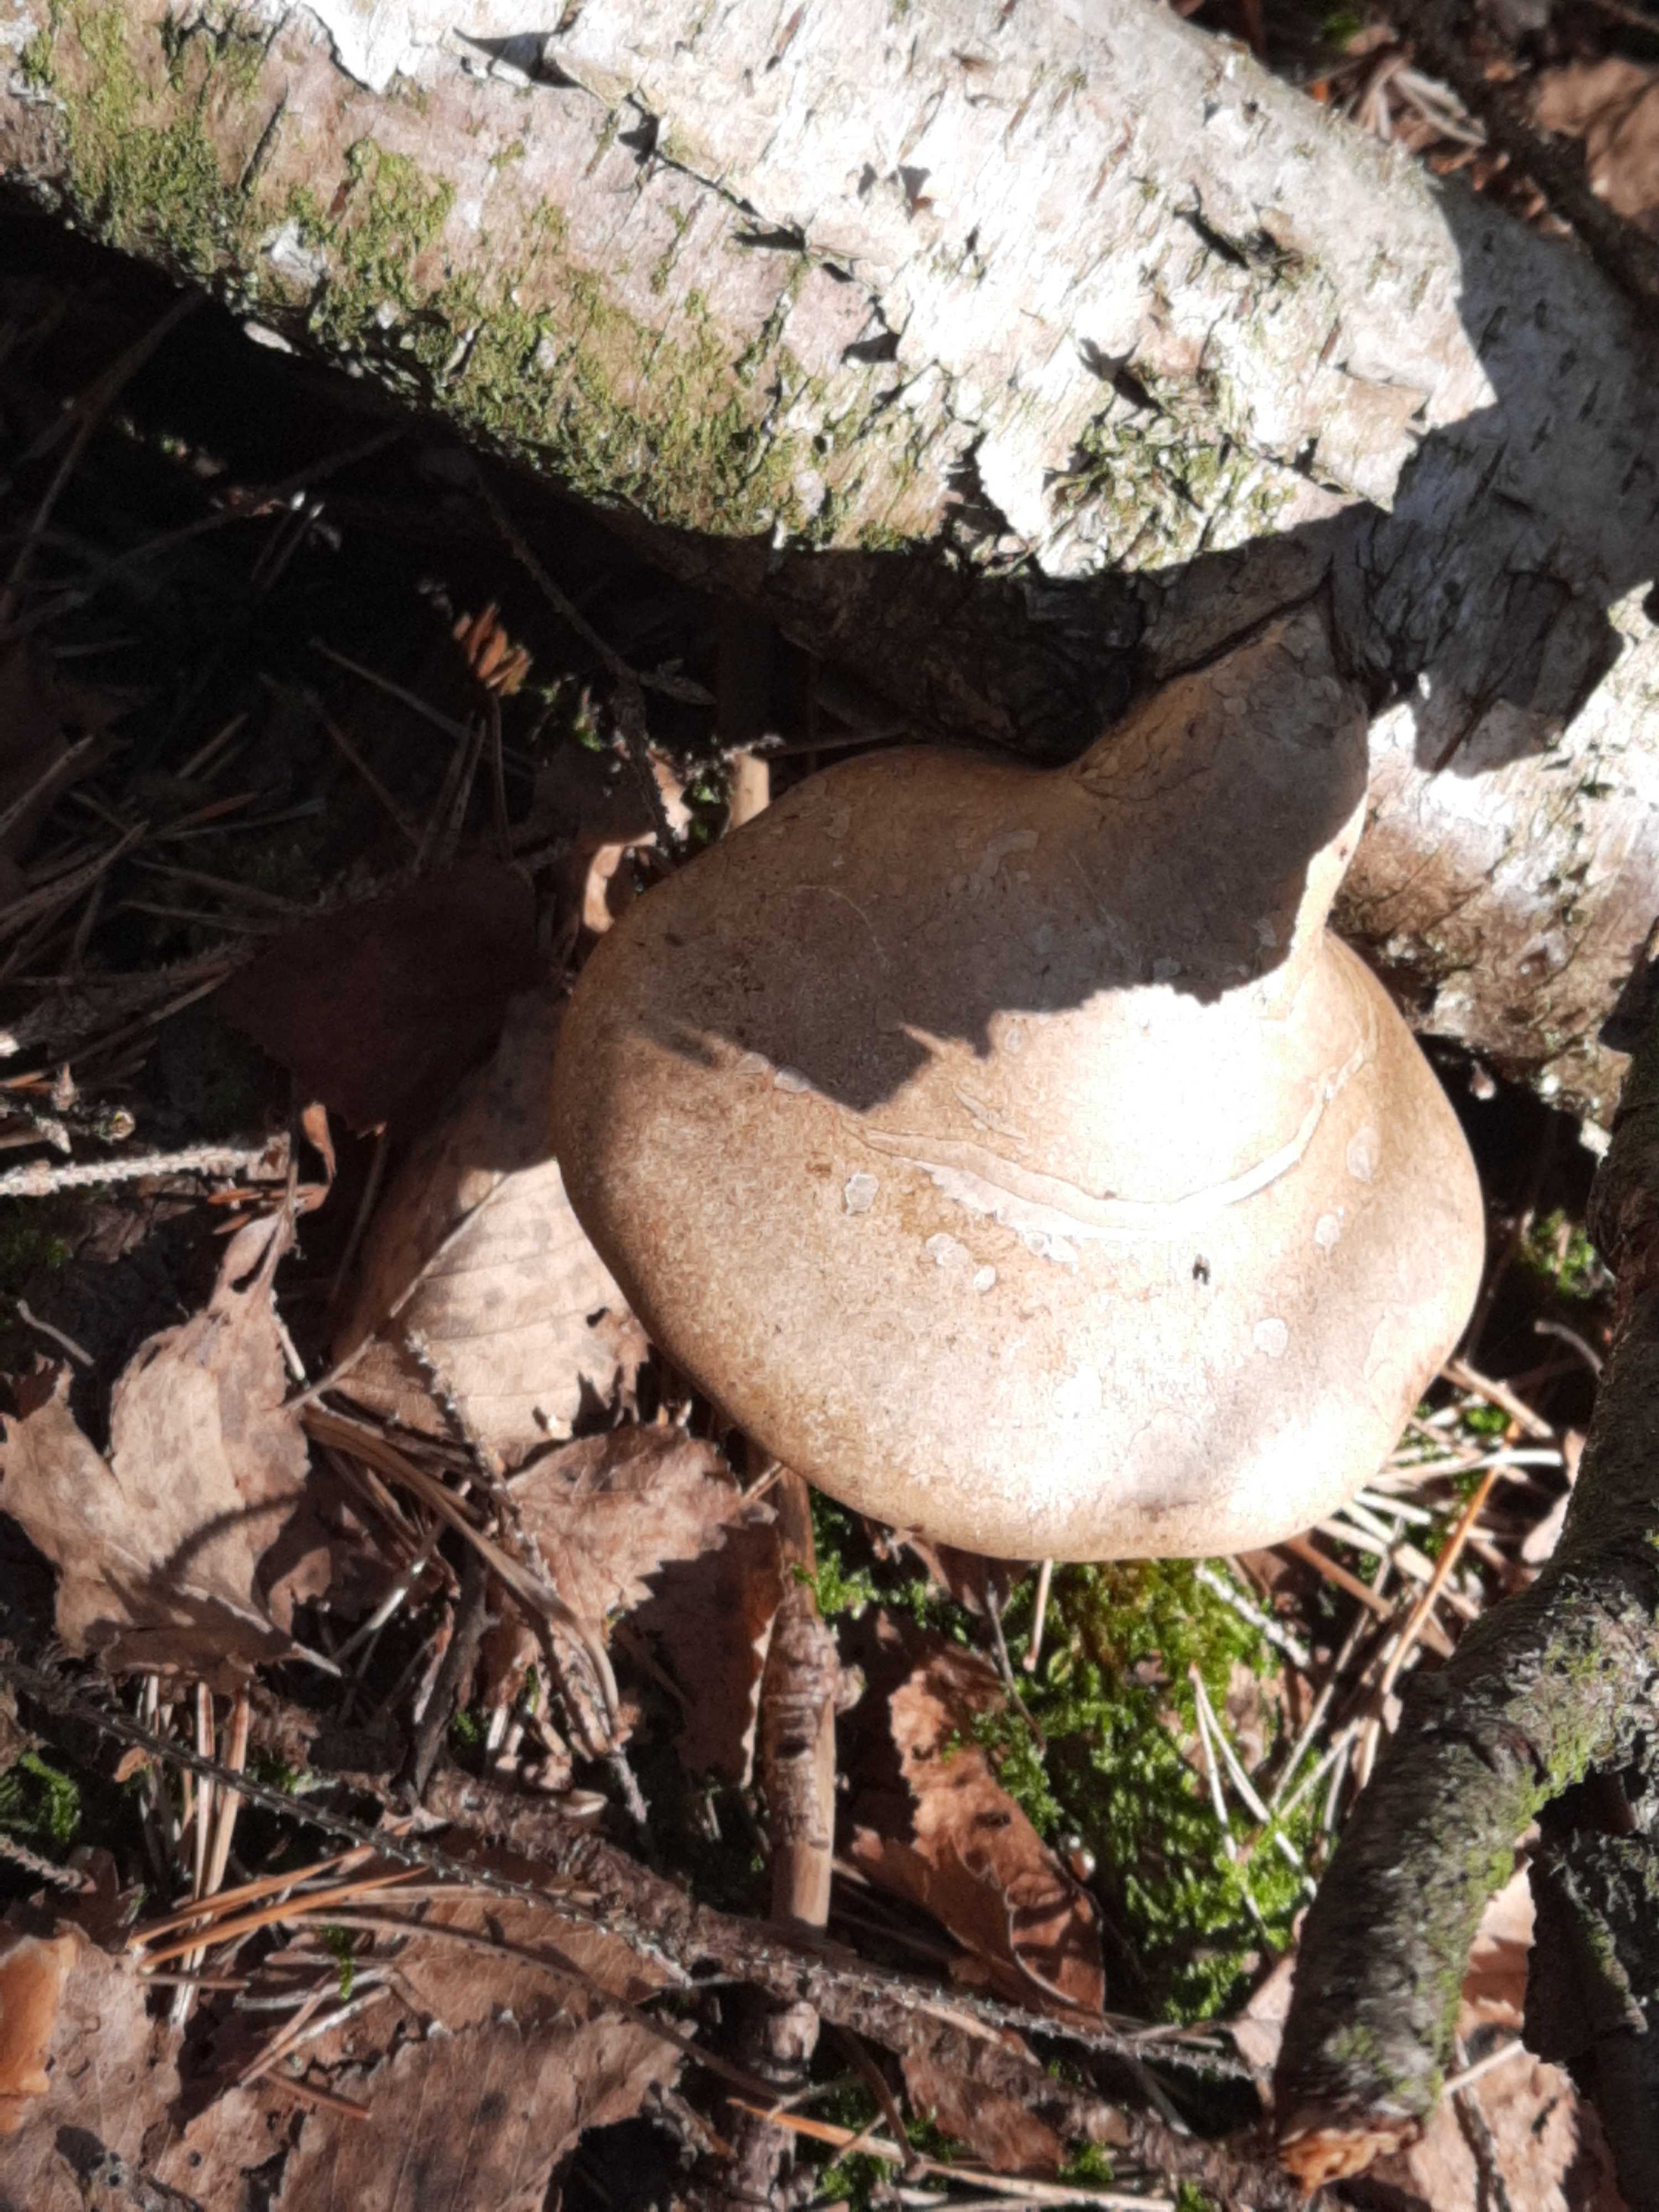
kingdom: Fungi
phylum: Basidiomycota
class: Agaricomycetes
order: Polyporales
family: Fomitopsidaceae
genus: Fomitopsis
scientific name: Fomitopsis betulina
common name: birkeporesvamp
